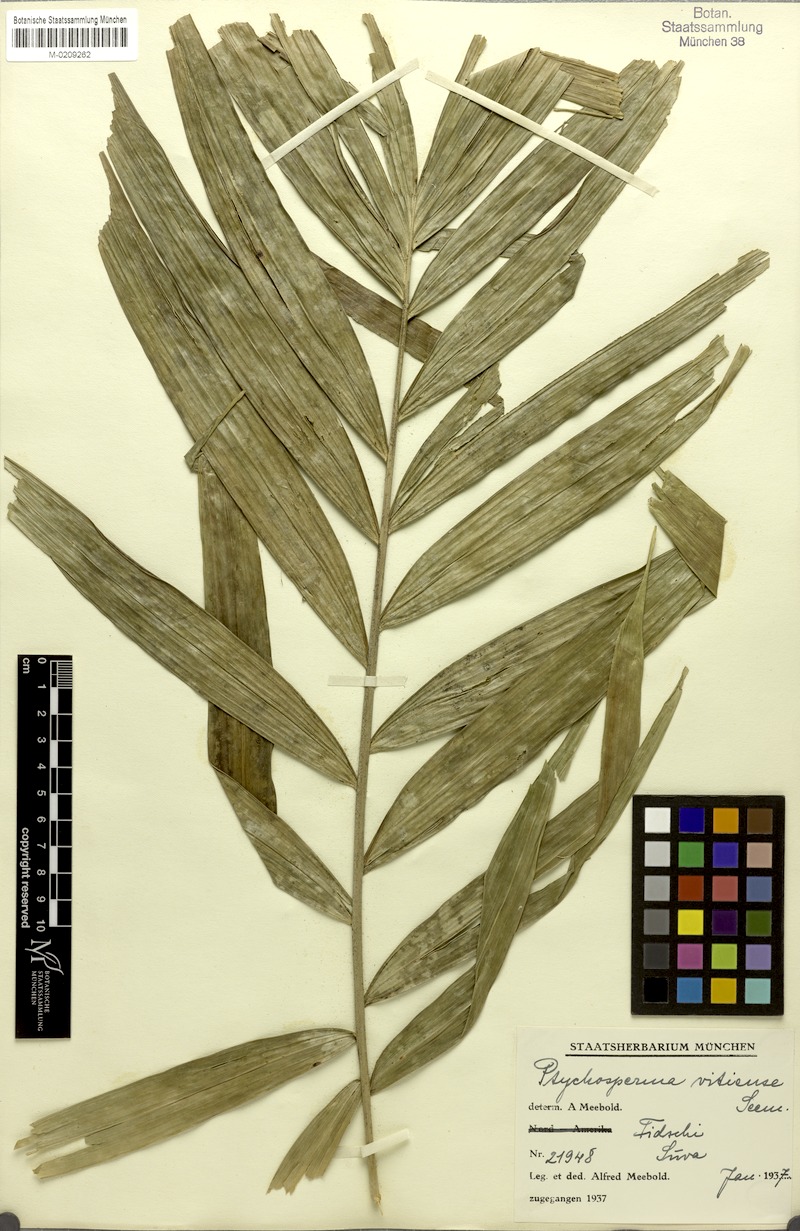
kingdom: Plantae
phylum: Tracheophyta
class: Liliopsida
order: Arecales
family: Arecaceae
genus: Veitchia
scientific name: Veitchia vitiensis
